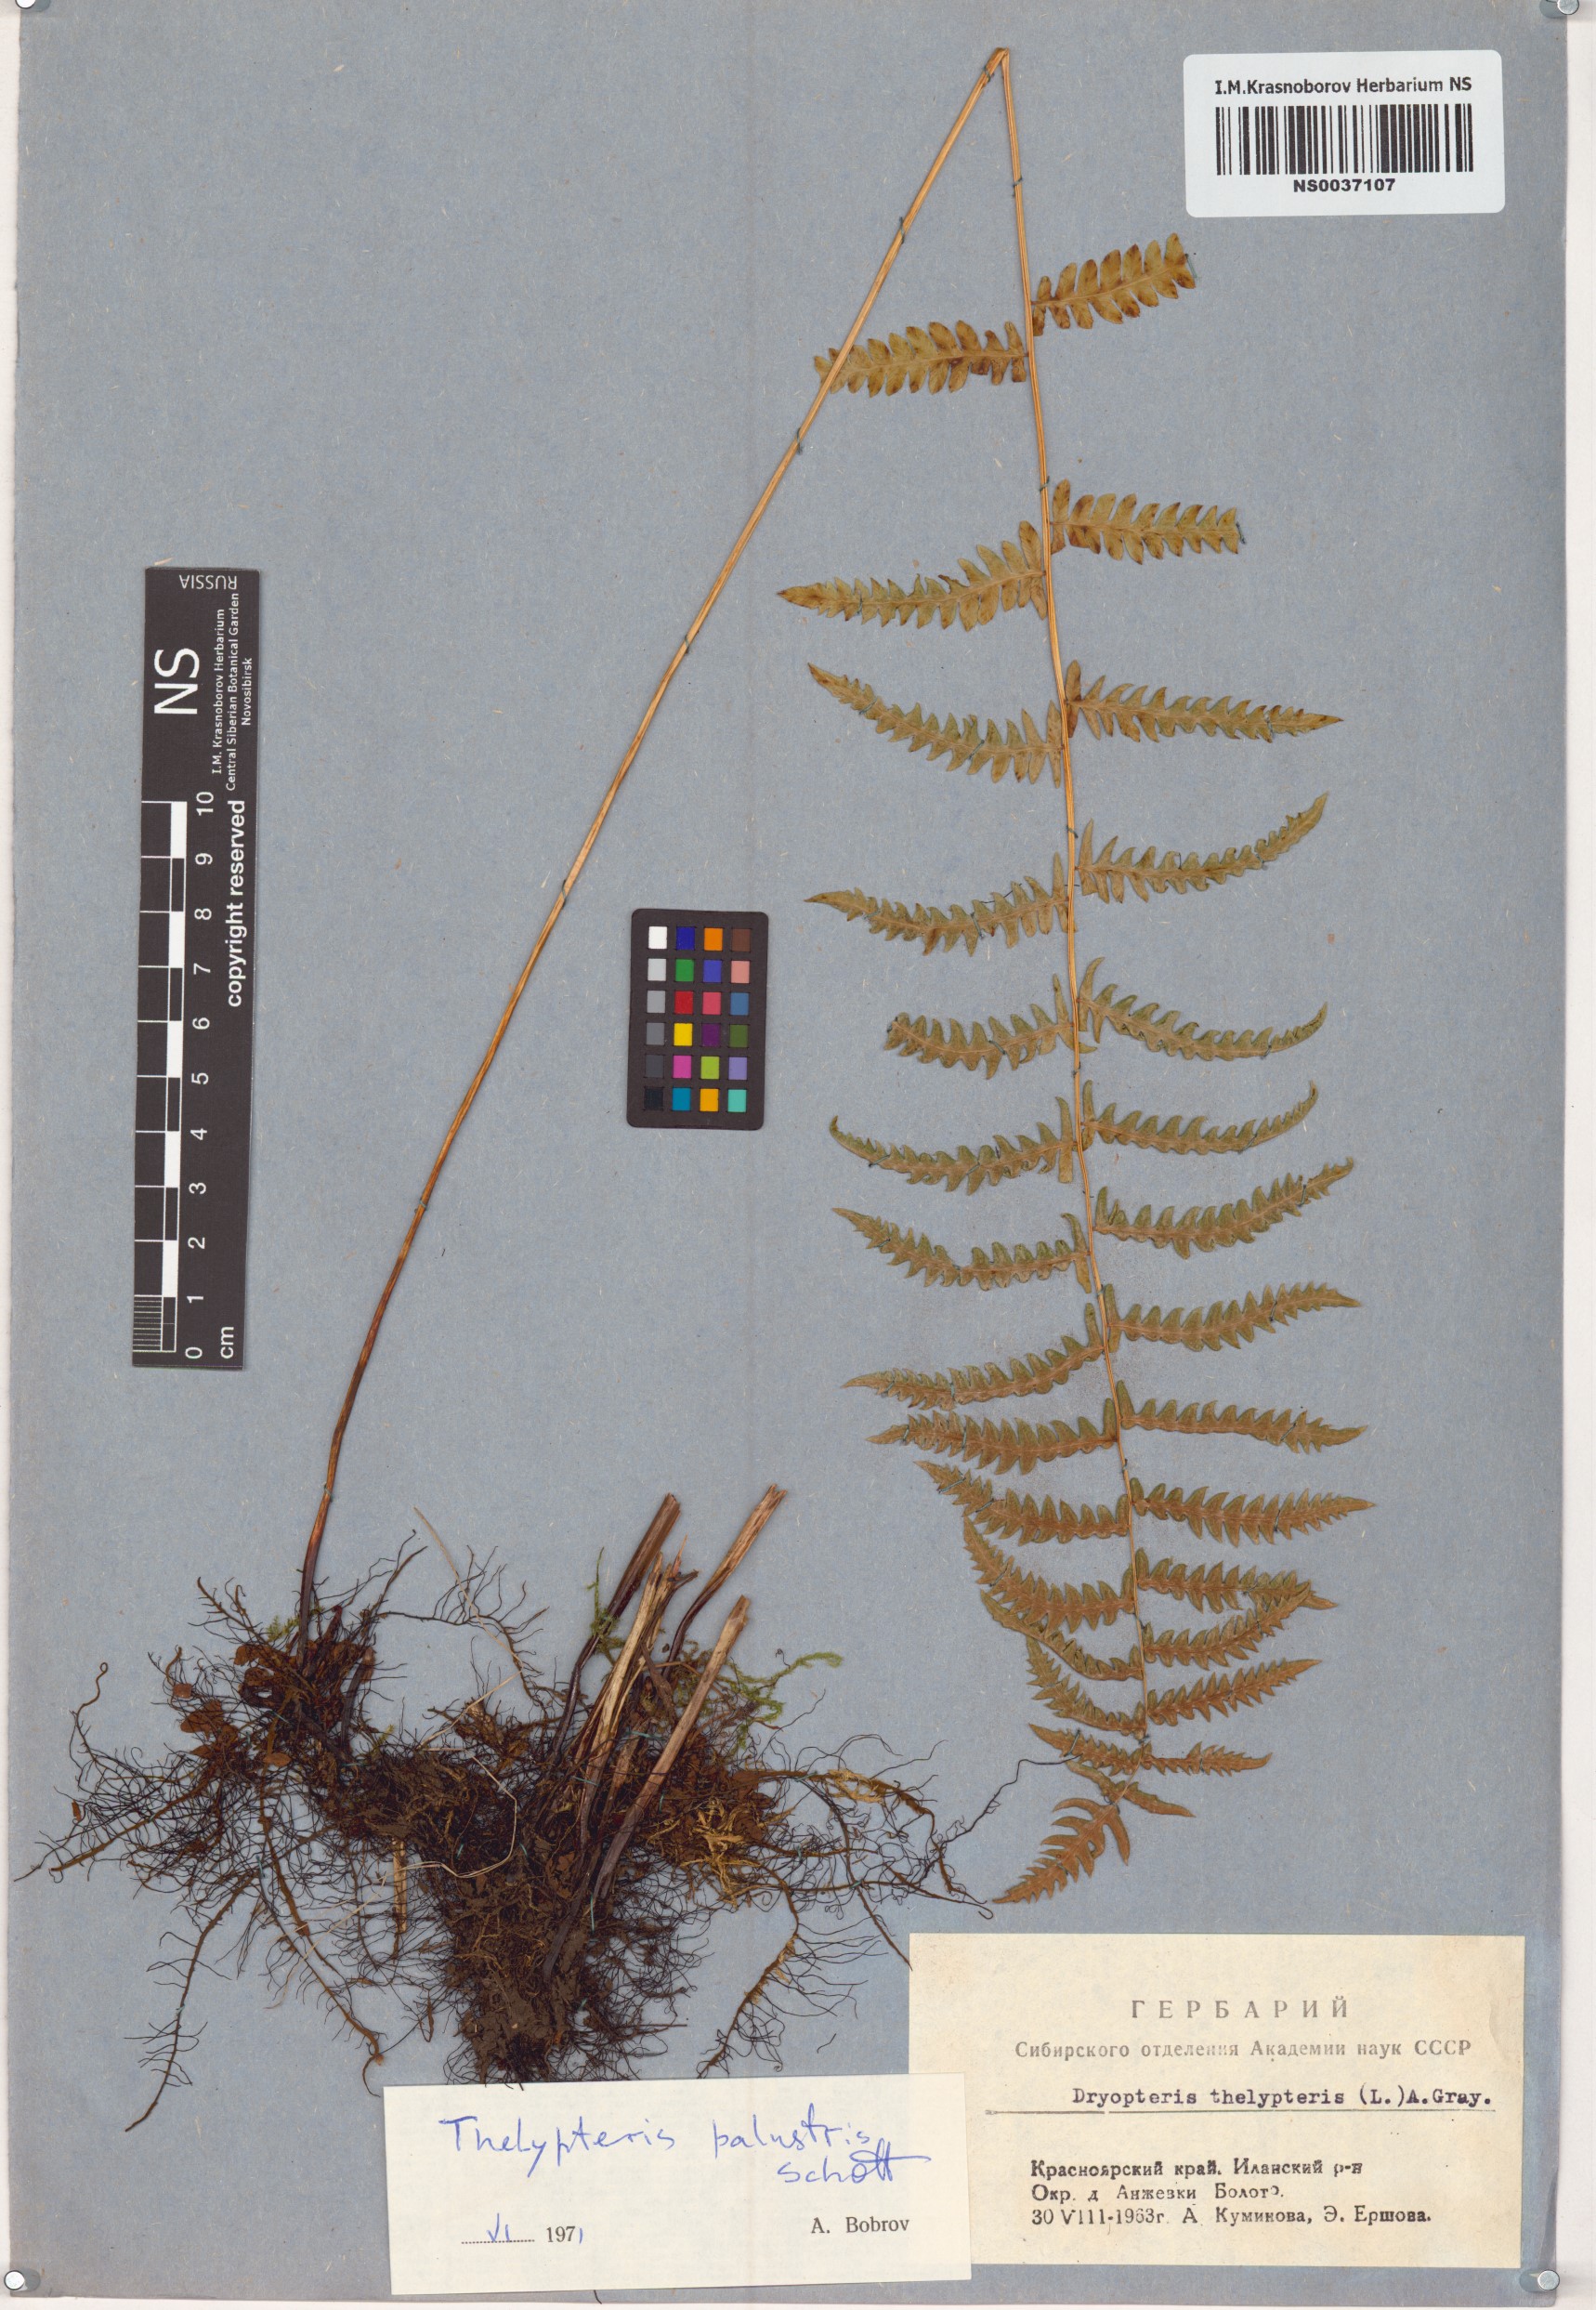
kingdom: Plantae
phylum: Tracheophyta
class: Polypodiopsida
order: Polypodiales
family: Thelypteridaceae
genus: Thelypteris
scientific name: Thelypteris palustris
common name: Marsh fern
